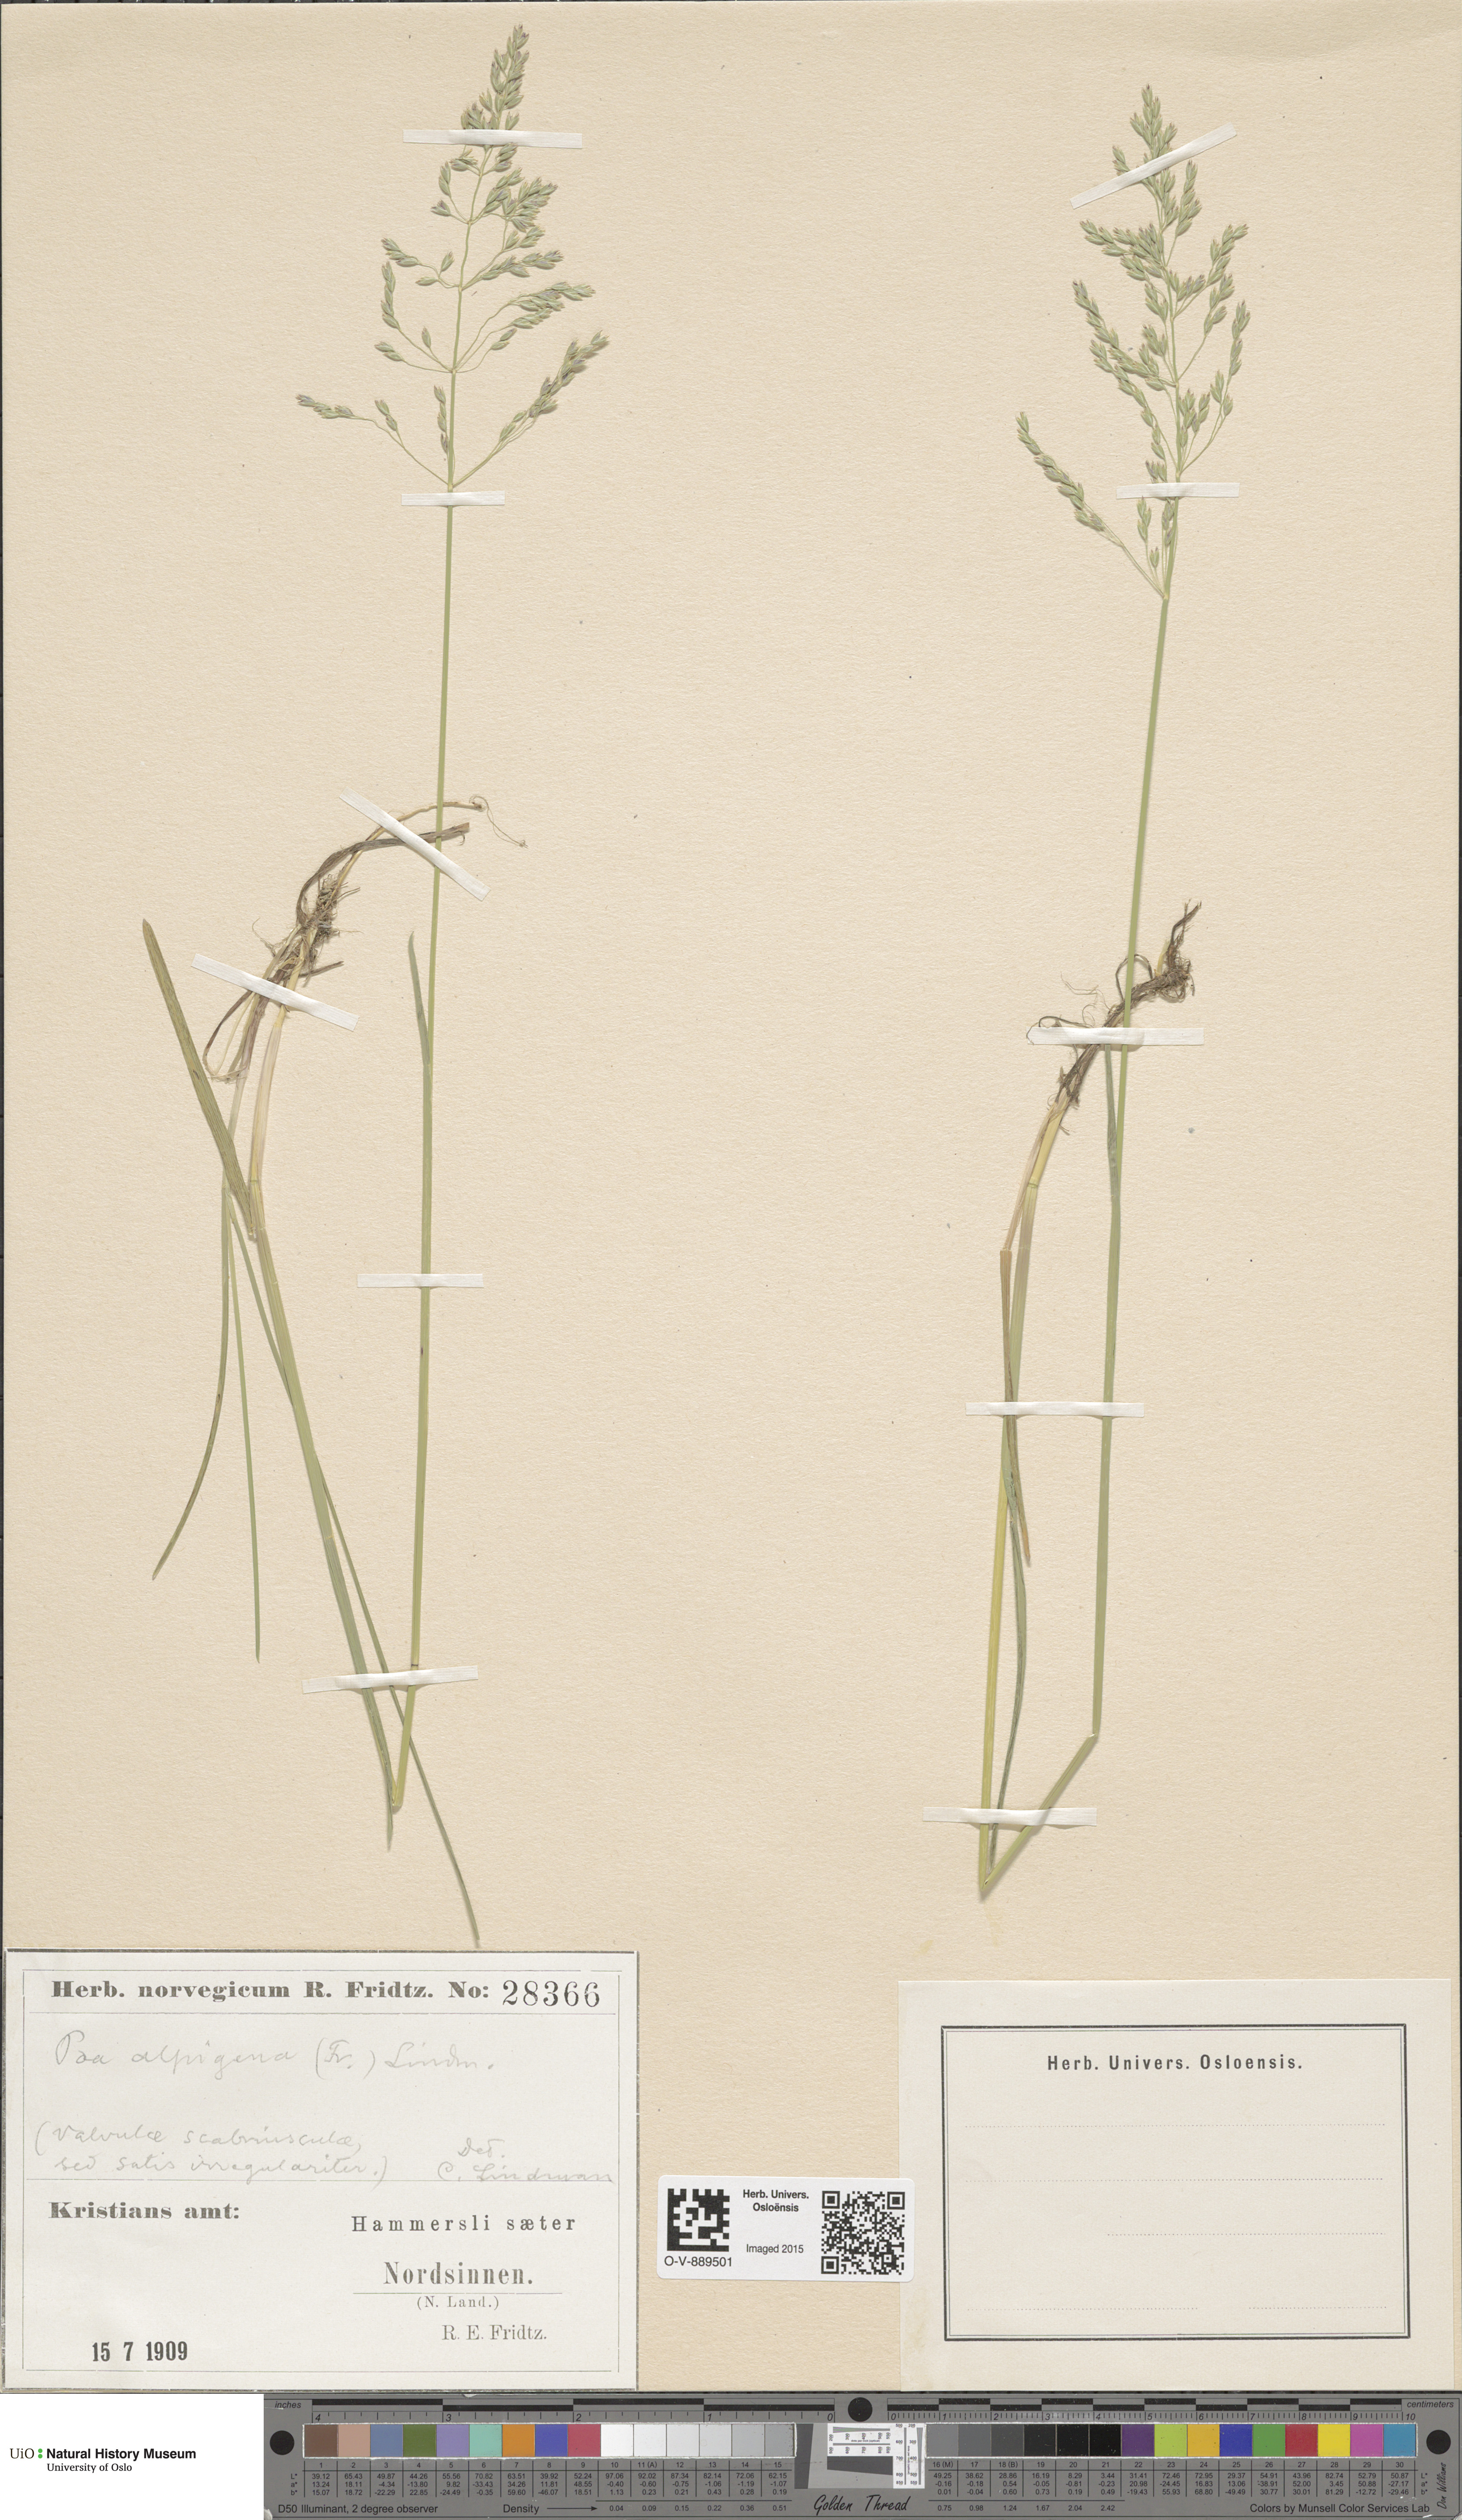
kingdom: Plantae
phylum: Tracheophyta
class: Liliopsida
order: Poales
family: Poaceae
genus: Poa
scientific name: Poa alpigena
